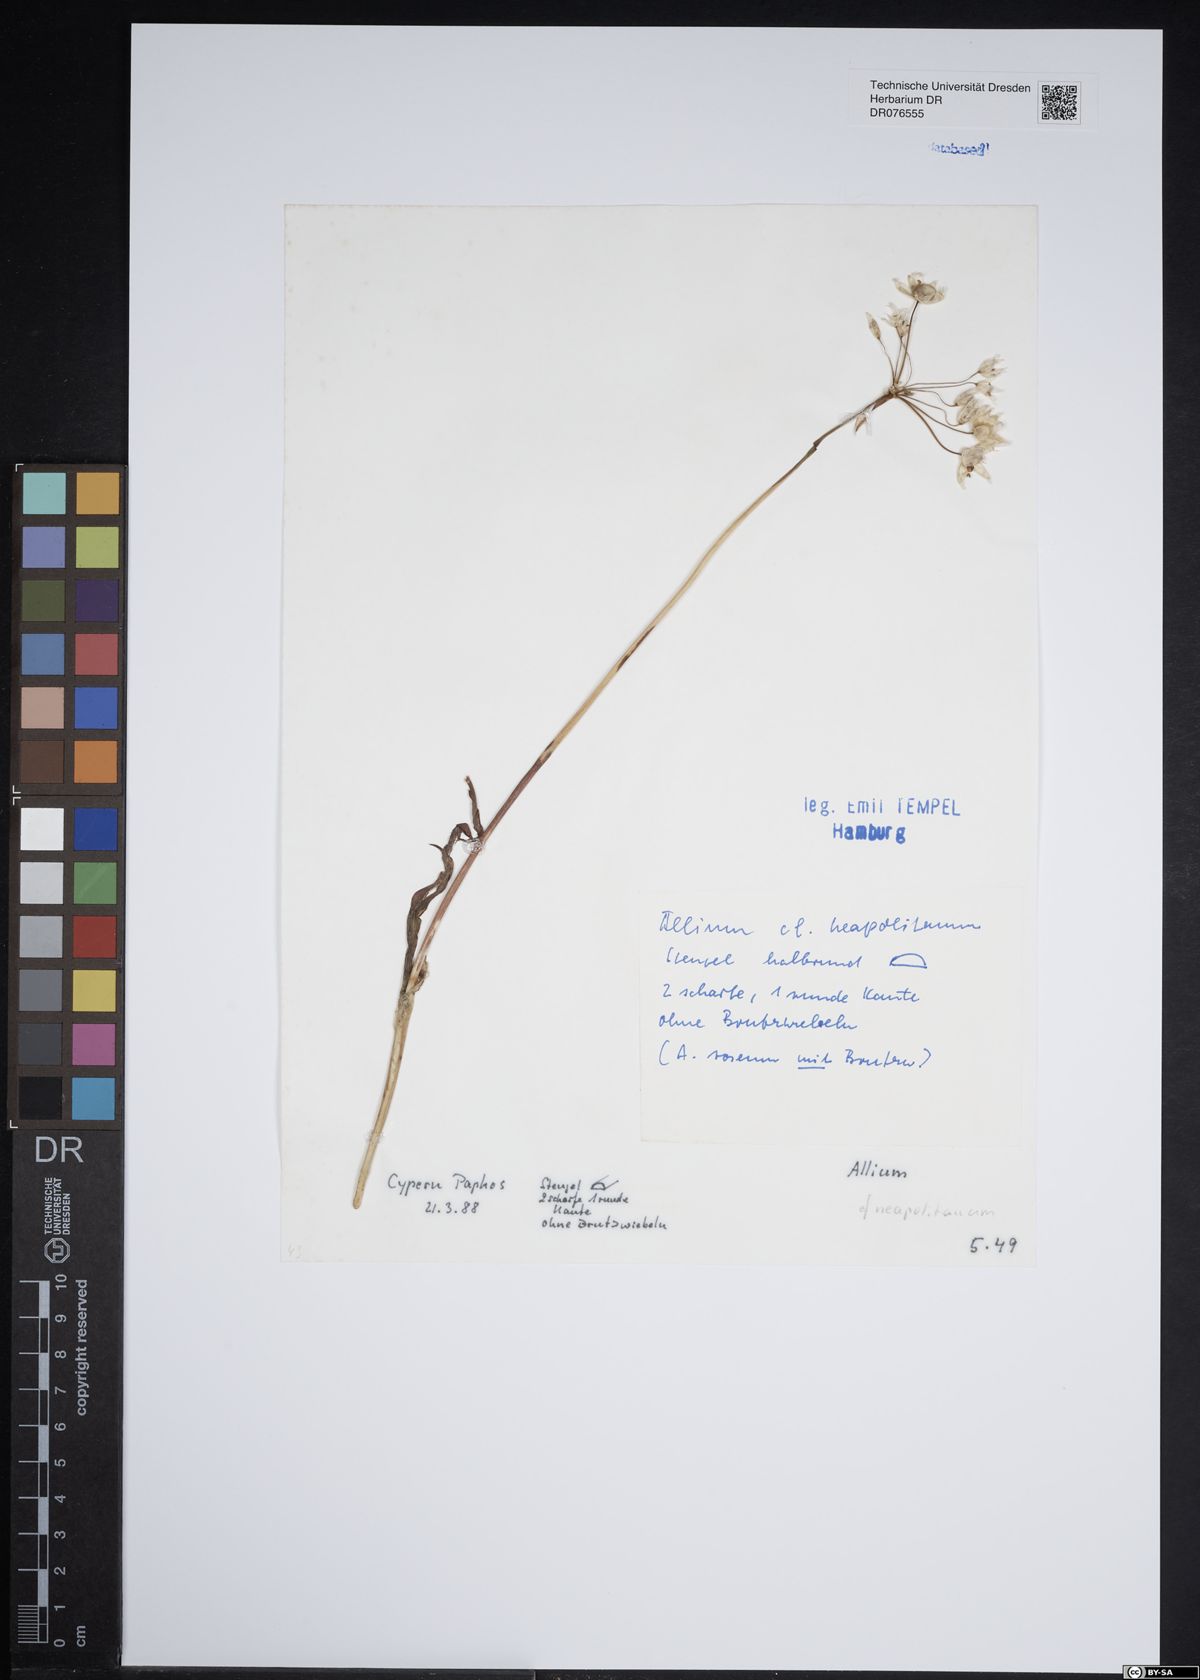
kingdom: Plantae
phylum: Tracheophyta
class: Liliopsida
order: Asparagales
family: Amaryllidaceae
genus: Allium
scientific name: Allium neapolitanum
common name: Neapolitan garlic
